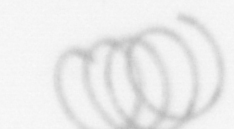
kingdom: Chromista
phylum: Ochrophyta
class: Bacillariophyceae
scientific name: Bacillariophyceae
